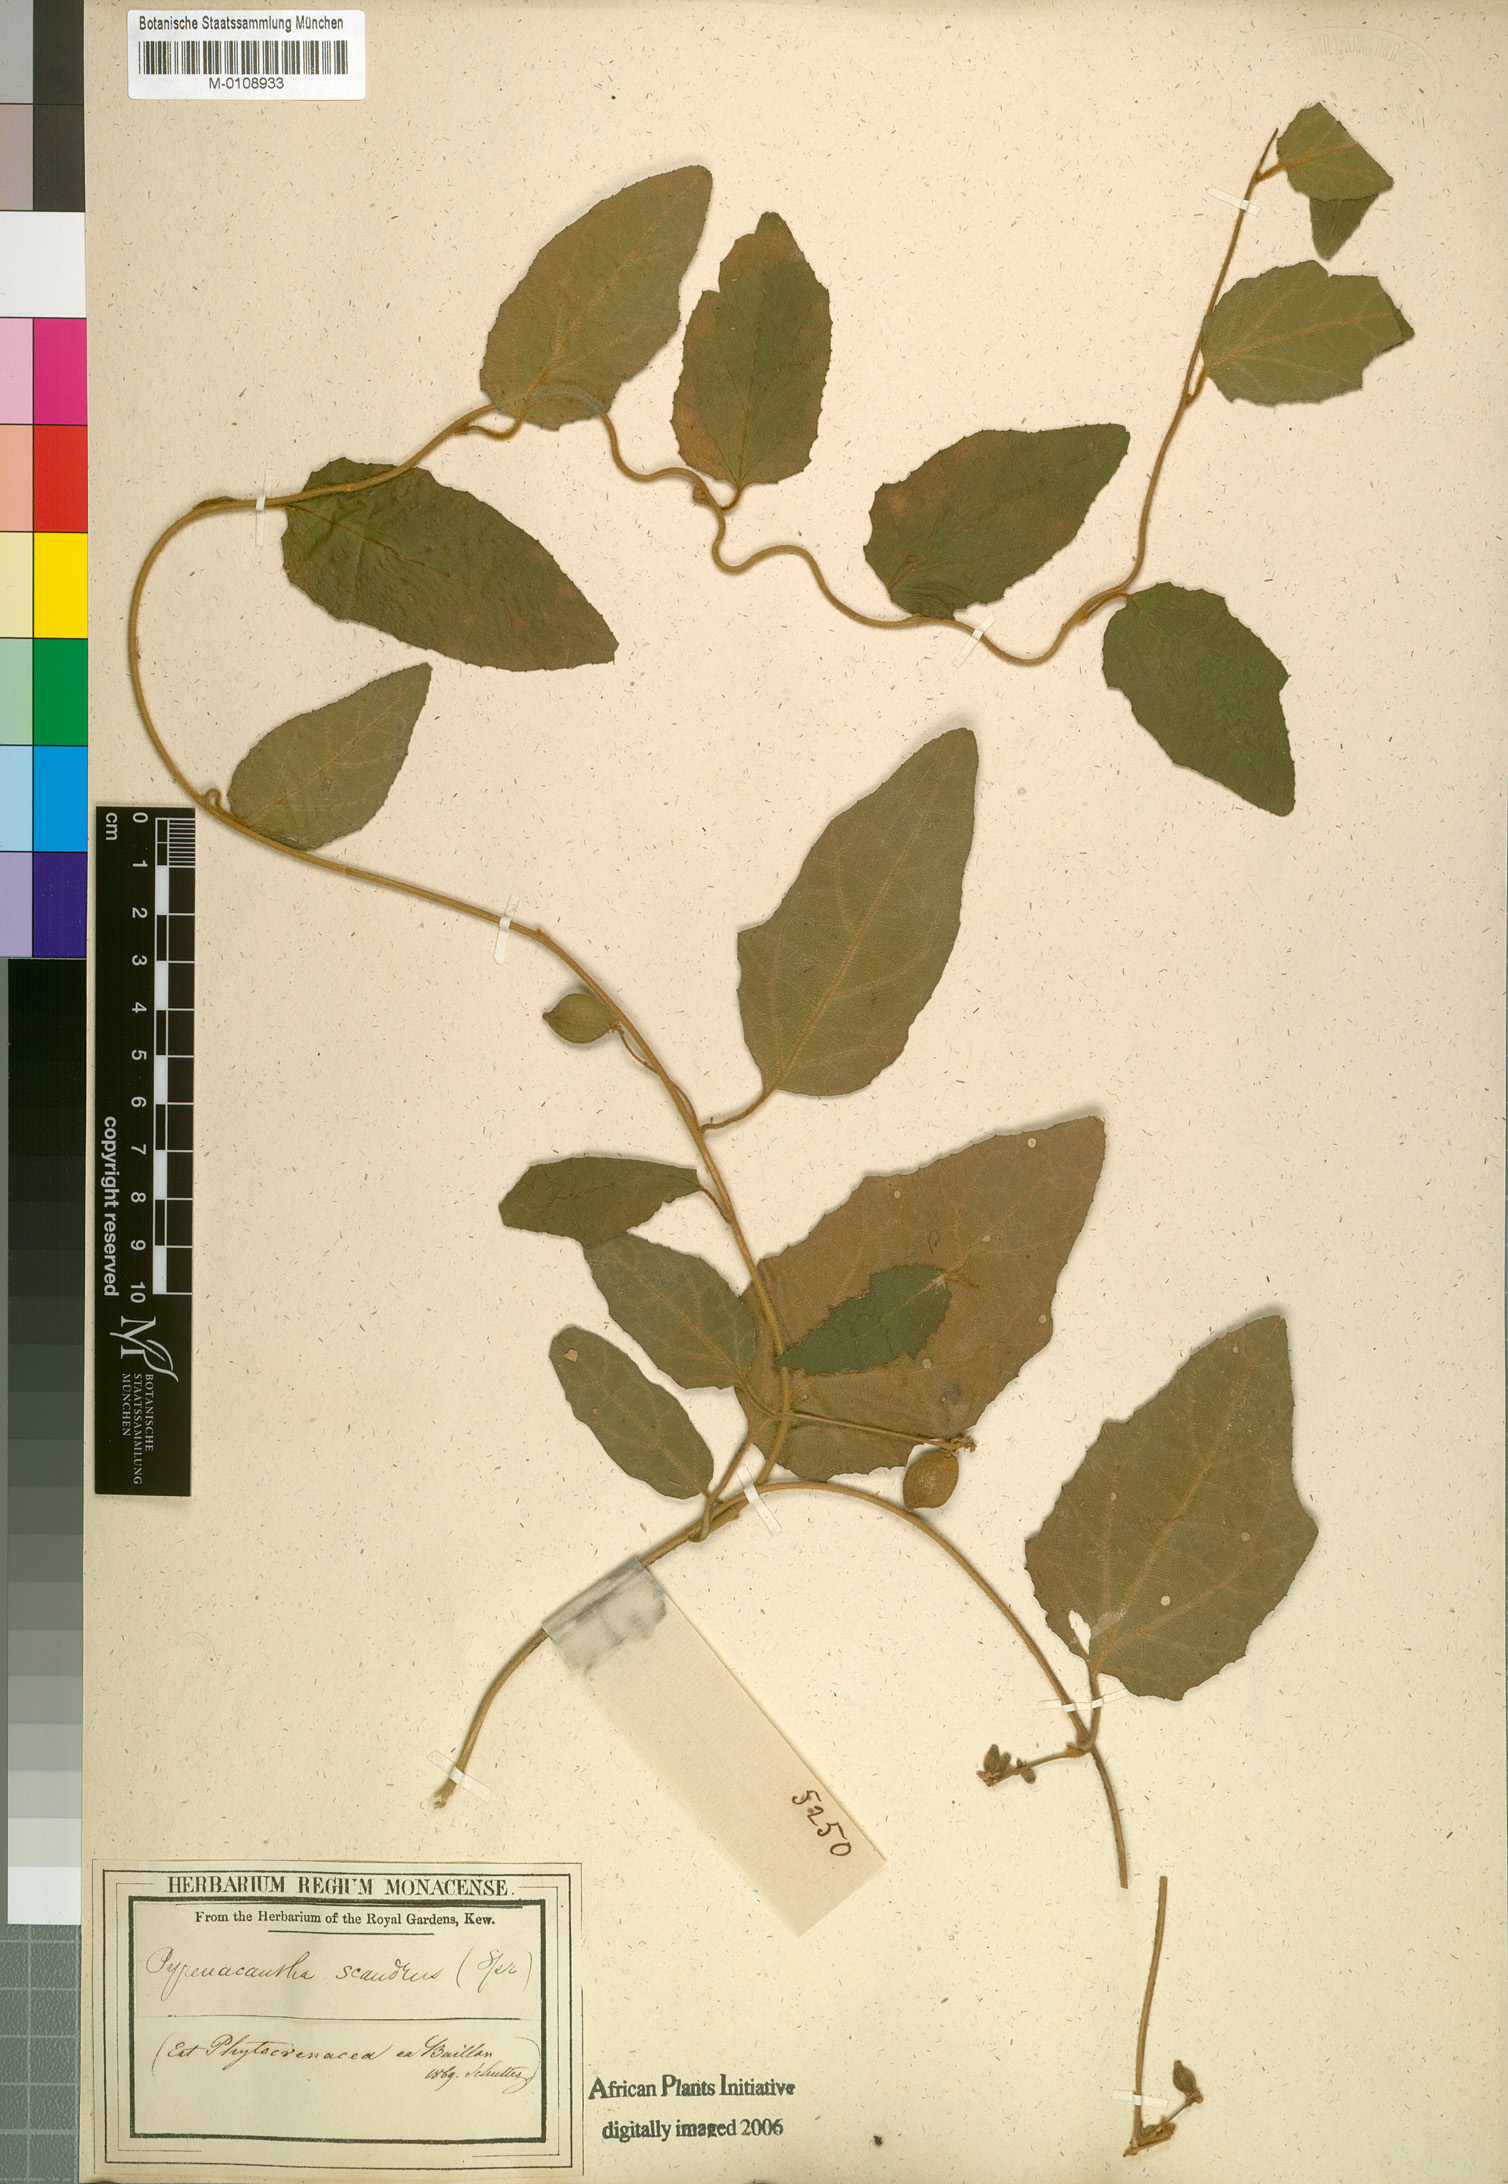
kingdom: Plantae
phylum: Tracheophyta
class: Magnoliopsida
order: Icacinales
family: Icacinaceae
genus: Pyrenacantha
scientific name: Pyrenacantha scandens
